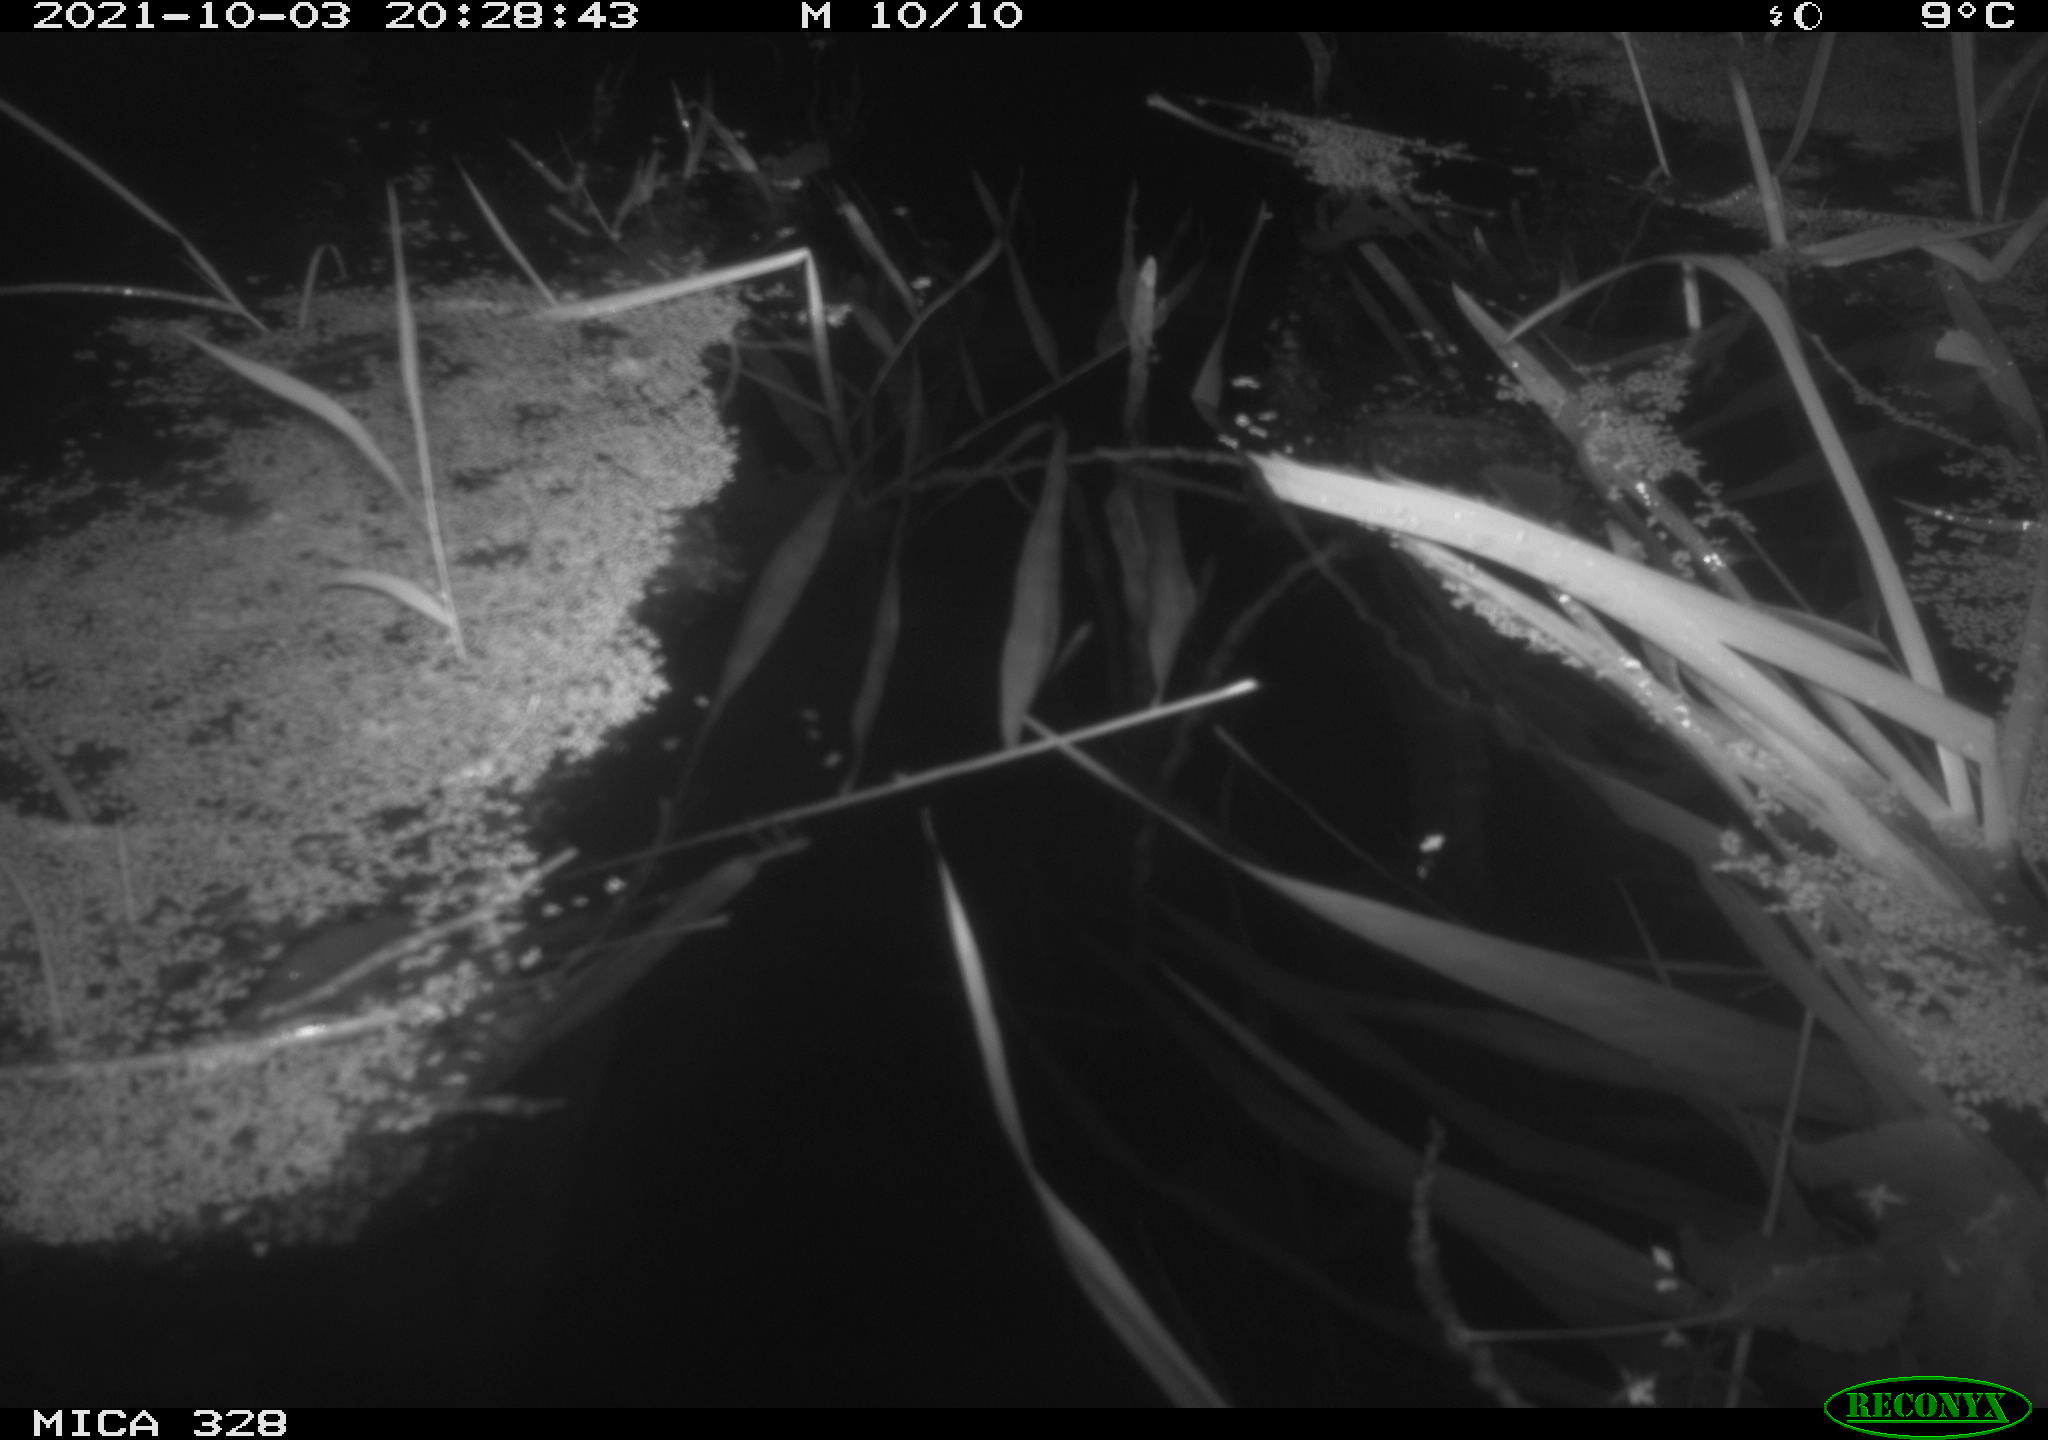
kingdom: Animalia
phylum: Chordata
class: Mammalia
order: Rodentia
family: Cricetidae
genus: Ondatra
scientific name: Ondatra zibethicus
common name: Muskrat
